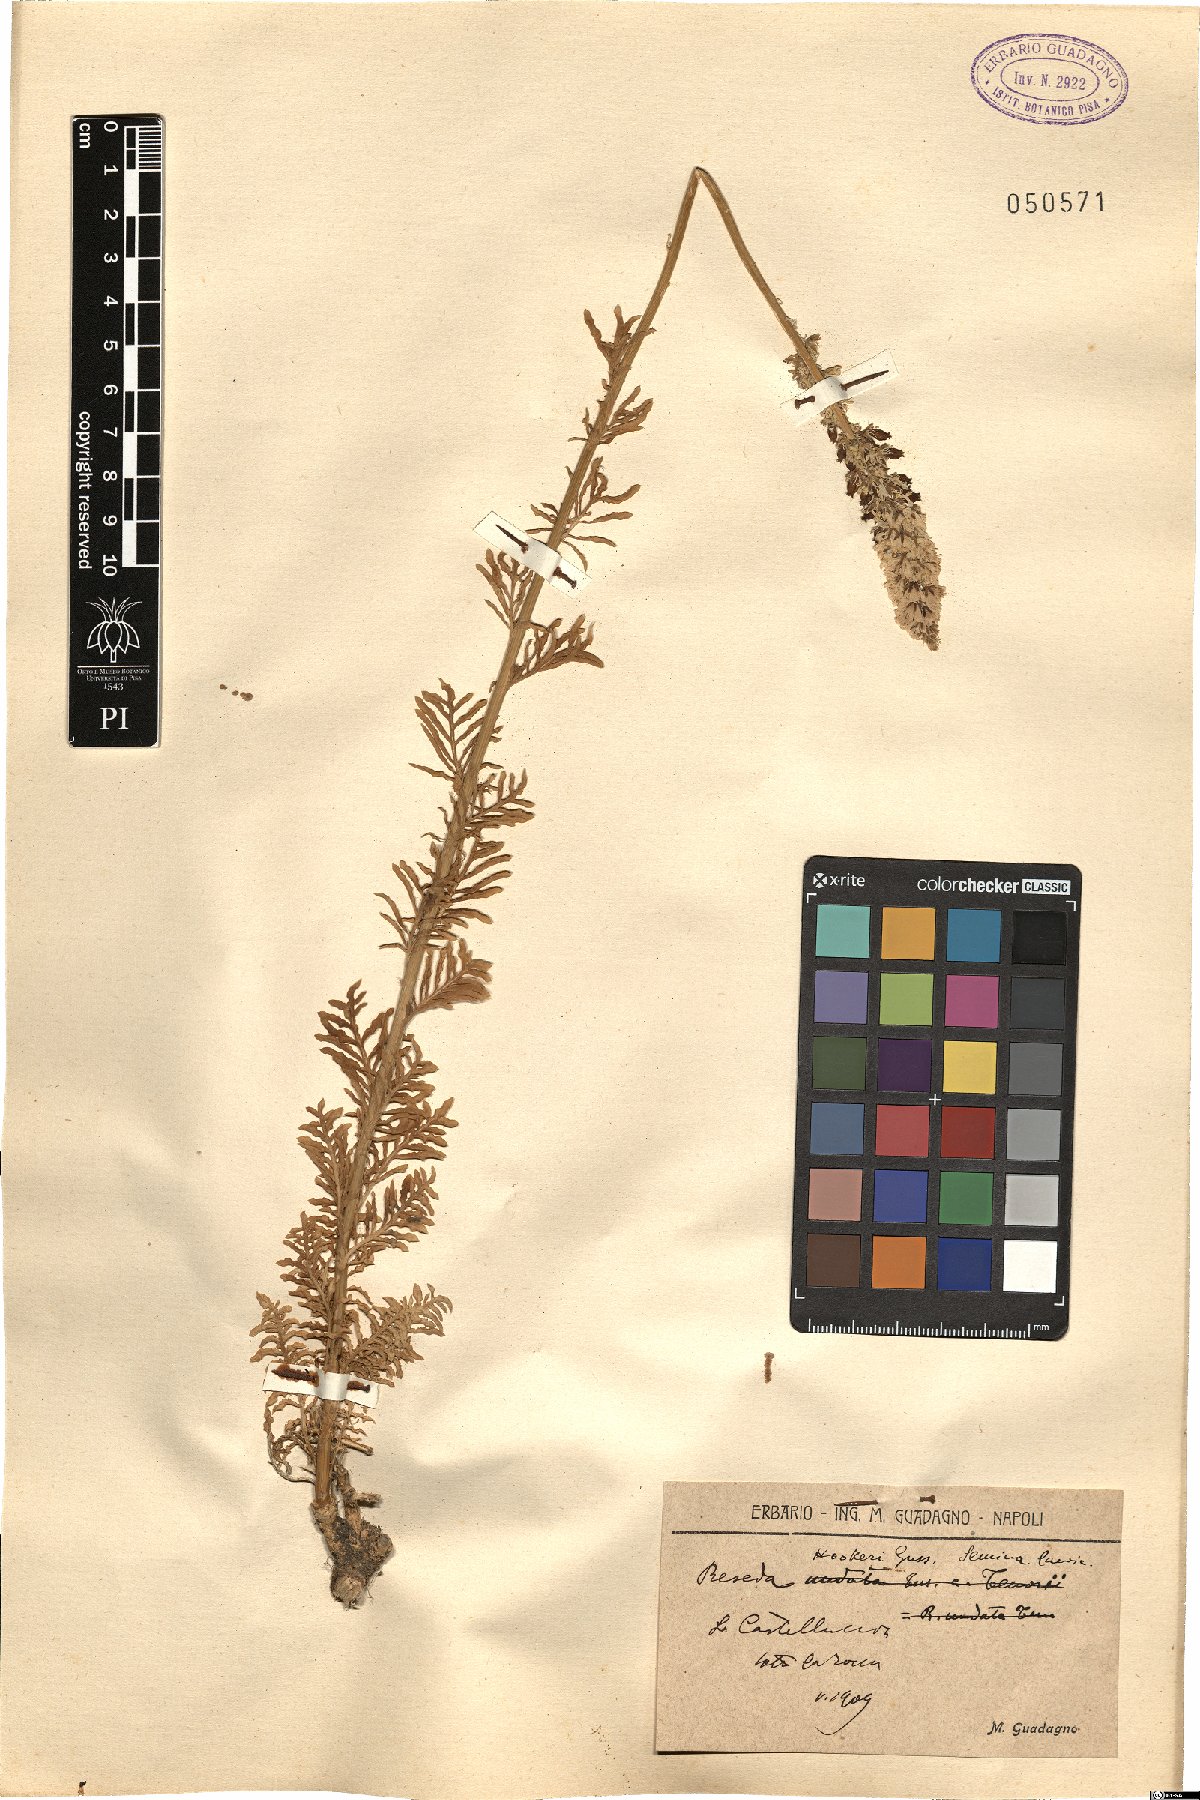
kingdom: Plantae
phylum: Tracheophyta
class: Magnoliopsida
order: Brassicales
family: Resedaceae
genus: Reseda
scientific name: Reseda alba
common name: White mignonette
